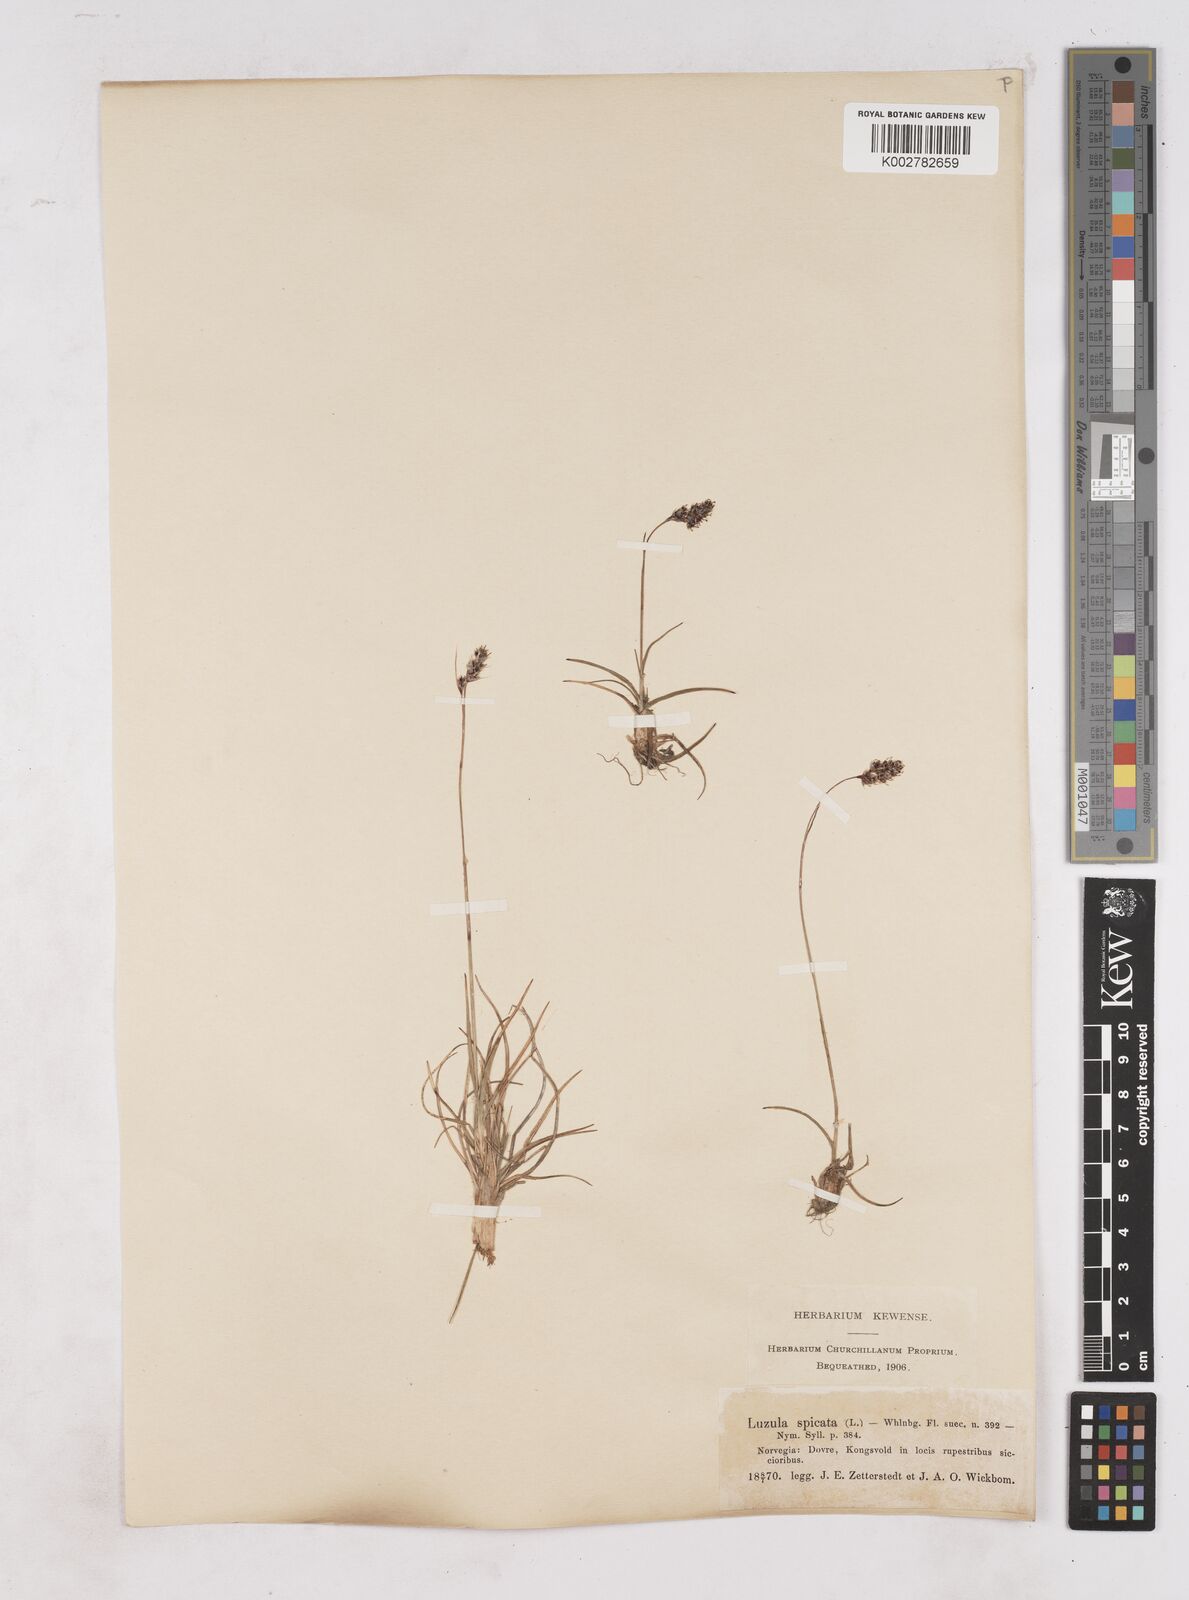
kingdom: Plantae
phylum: Tracheophyta
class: Liliopsida
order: Poales
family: Juncaceae
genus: Luzula
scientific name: Luzula spicata
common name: Spiked wood-rush
